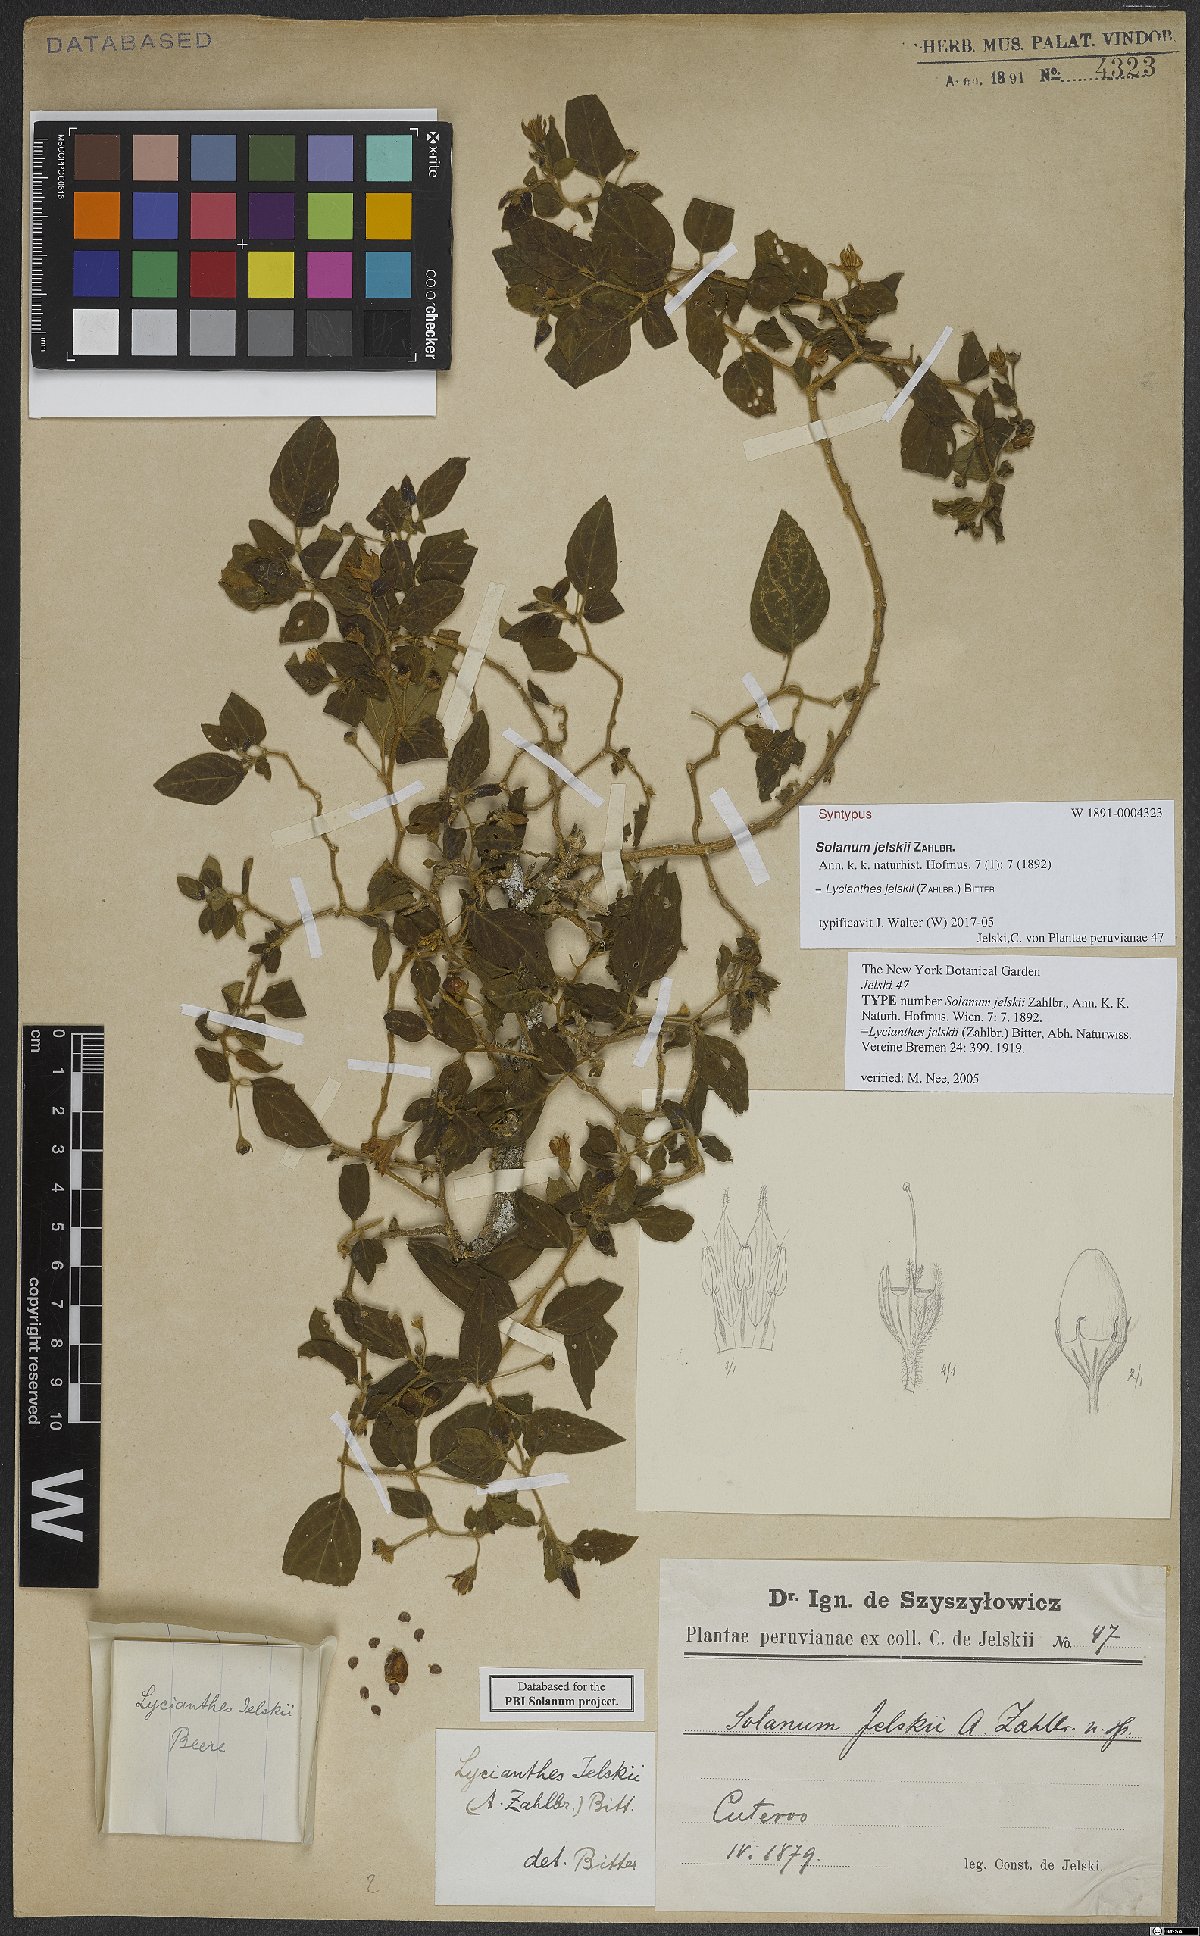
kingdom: Plantae
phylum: Tracheophyta
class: Magnoliopsida
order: Solanales
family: Solanaceae
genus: Lycianthes
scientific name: Lycianthes jelskii
